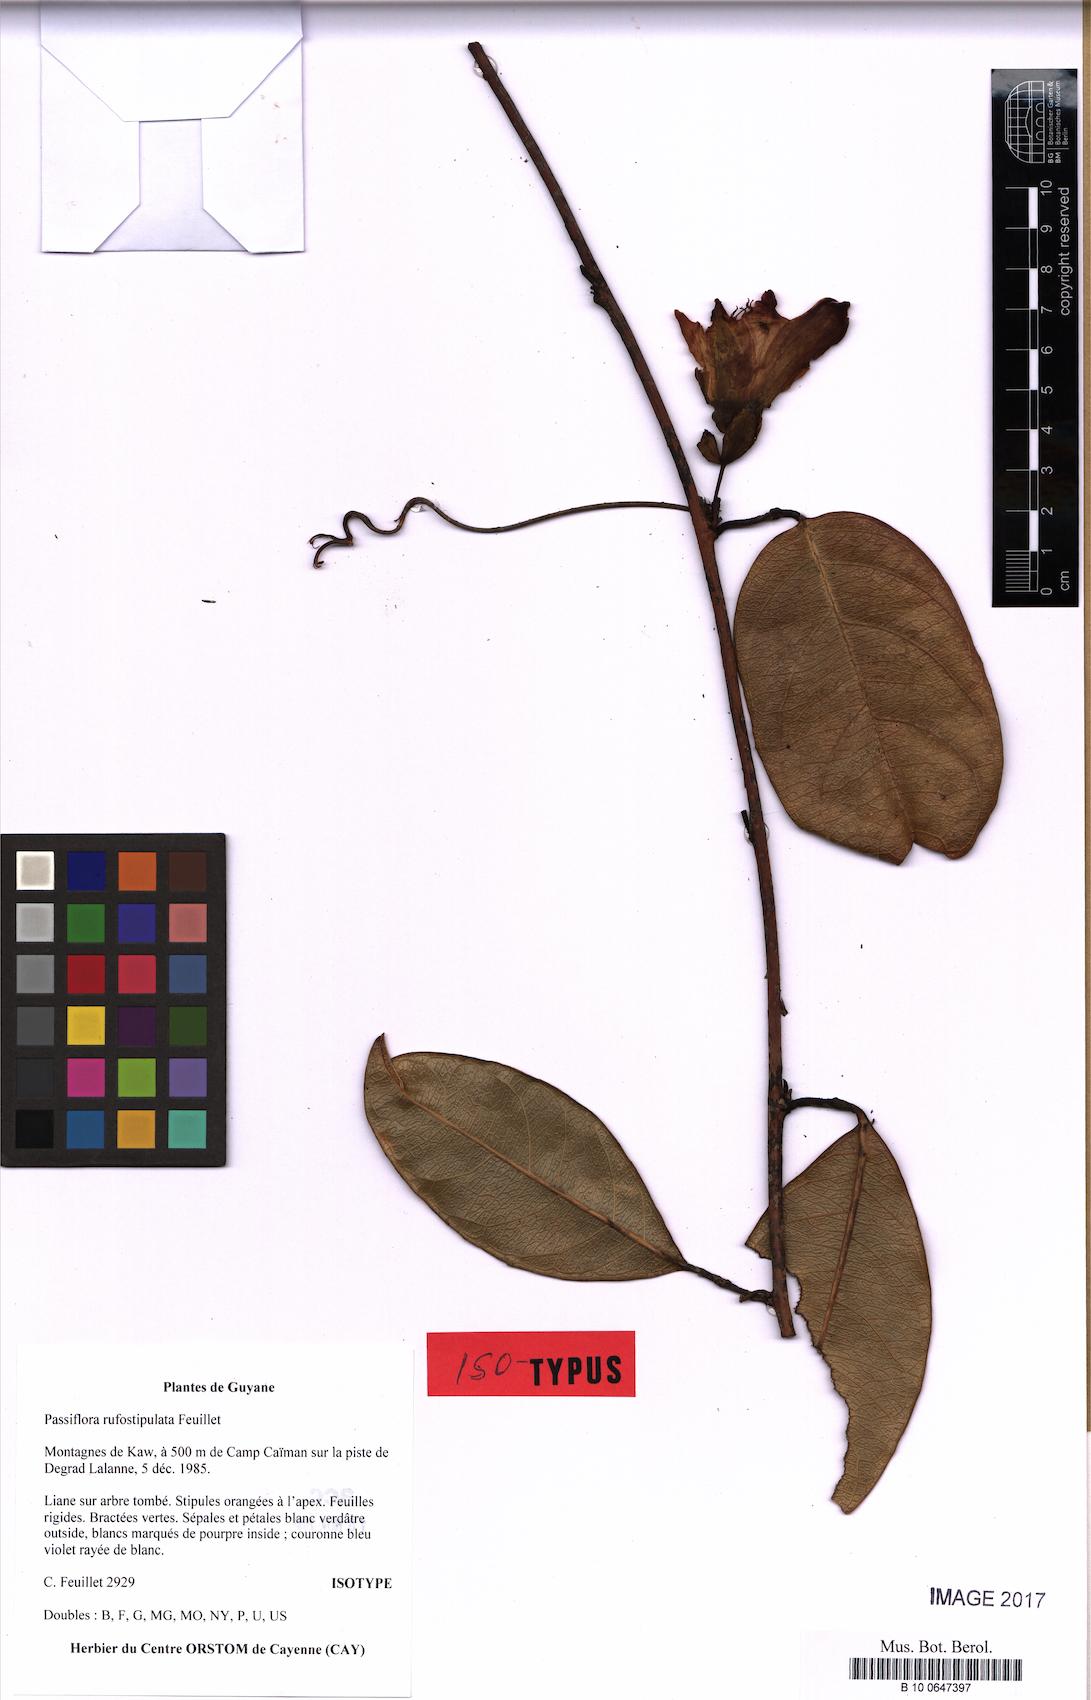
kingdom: Plantae
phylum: Tracheophyta
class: Magnoliopsida
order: Malpighiales
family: Passifloraceae
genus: Passiflora
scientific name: Passiflora rufostipulata
